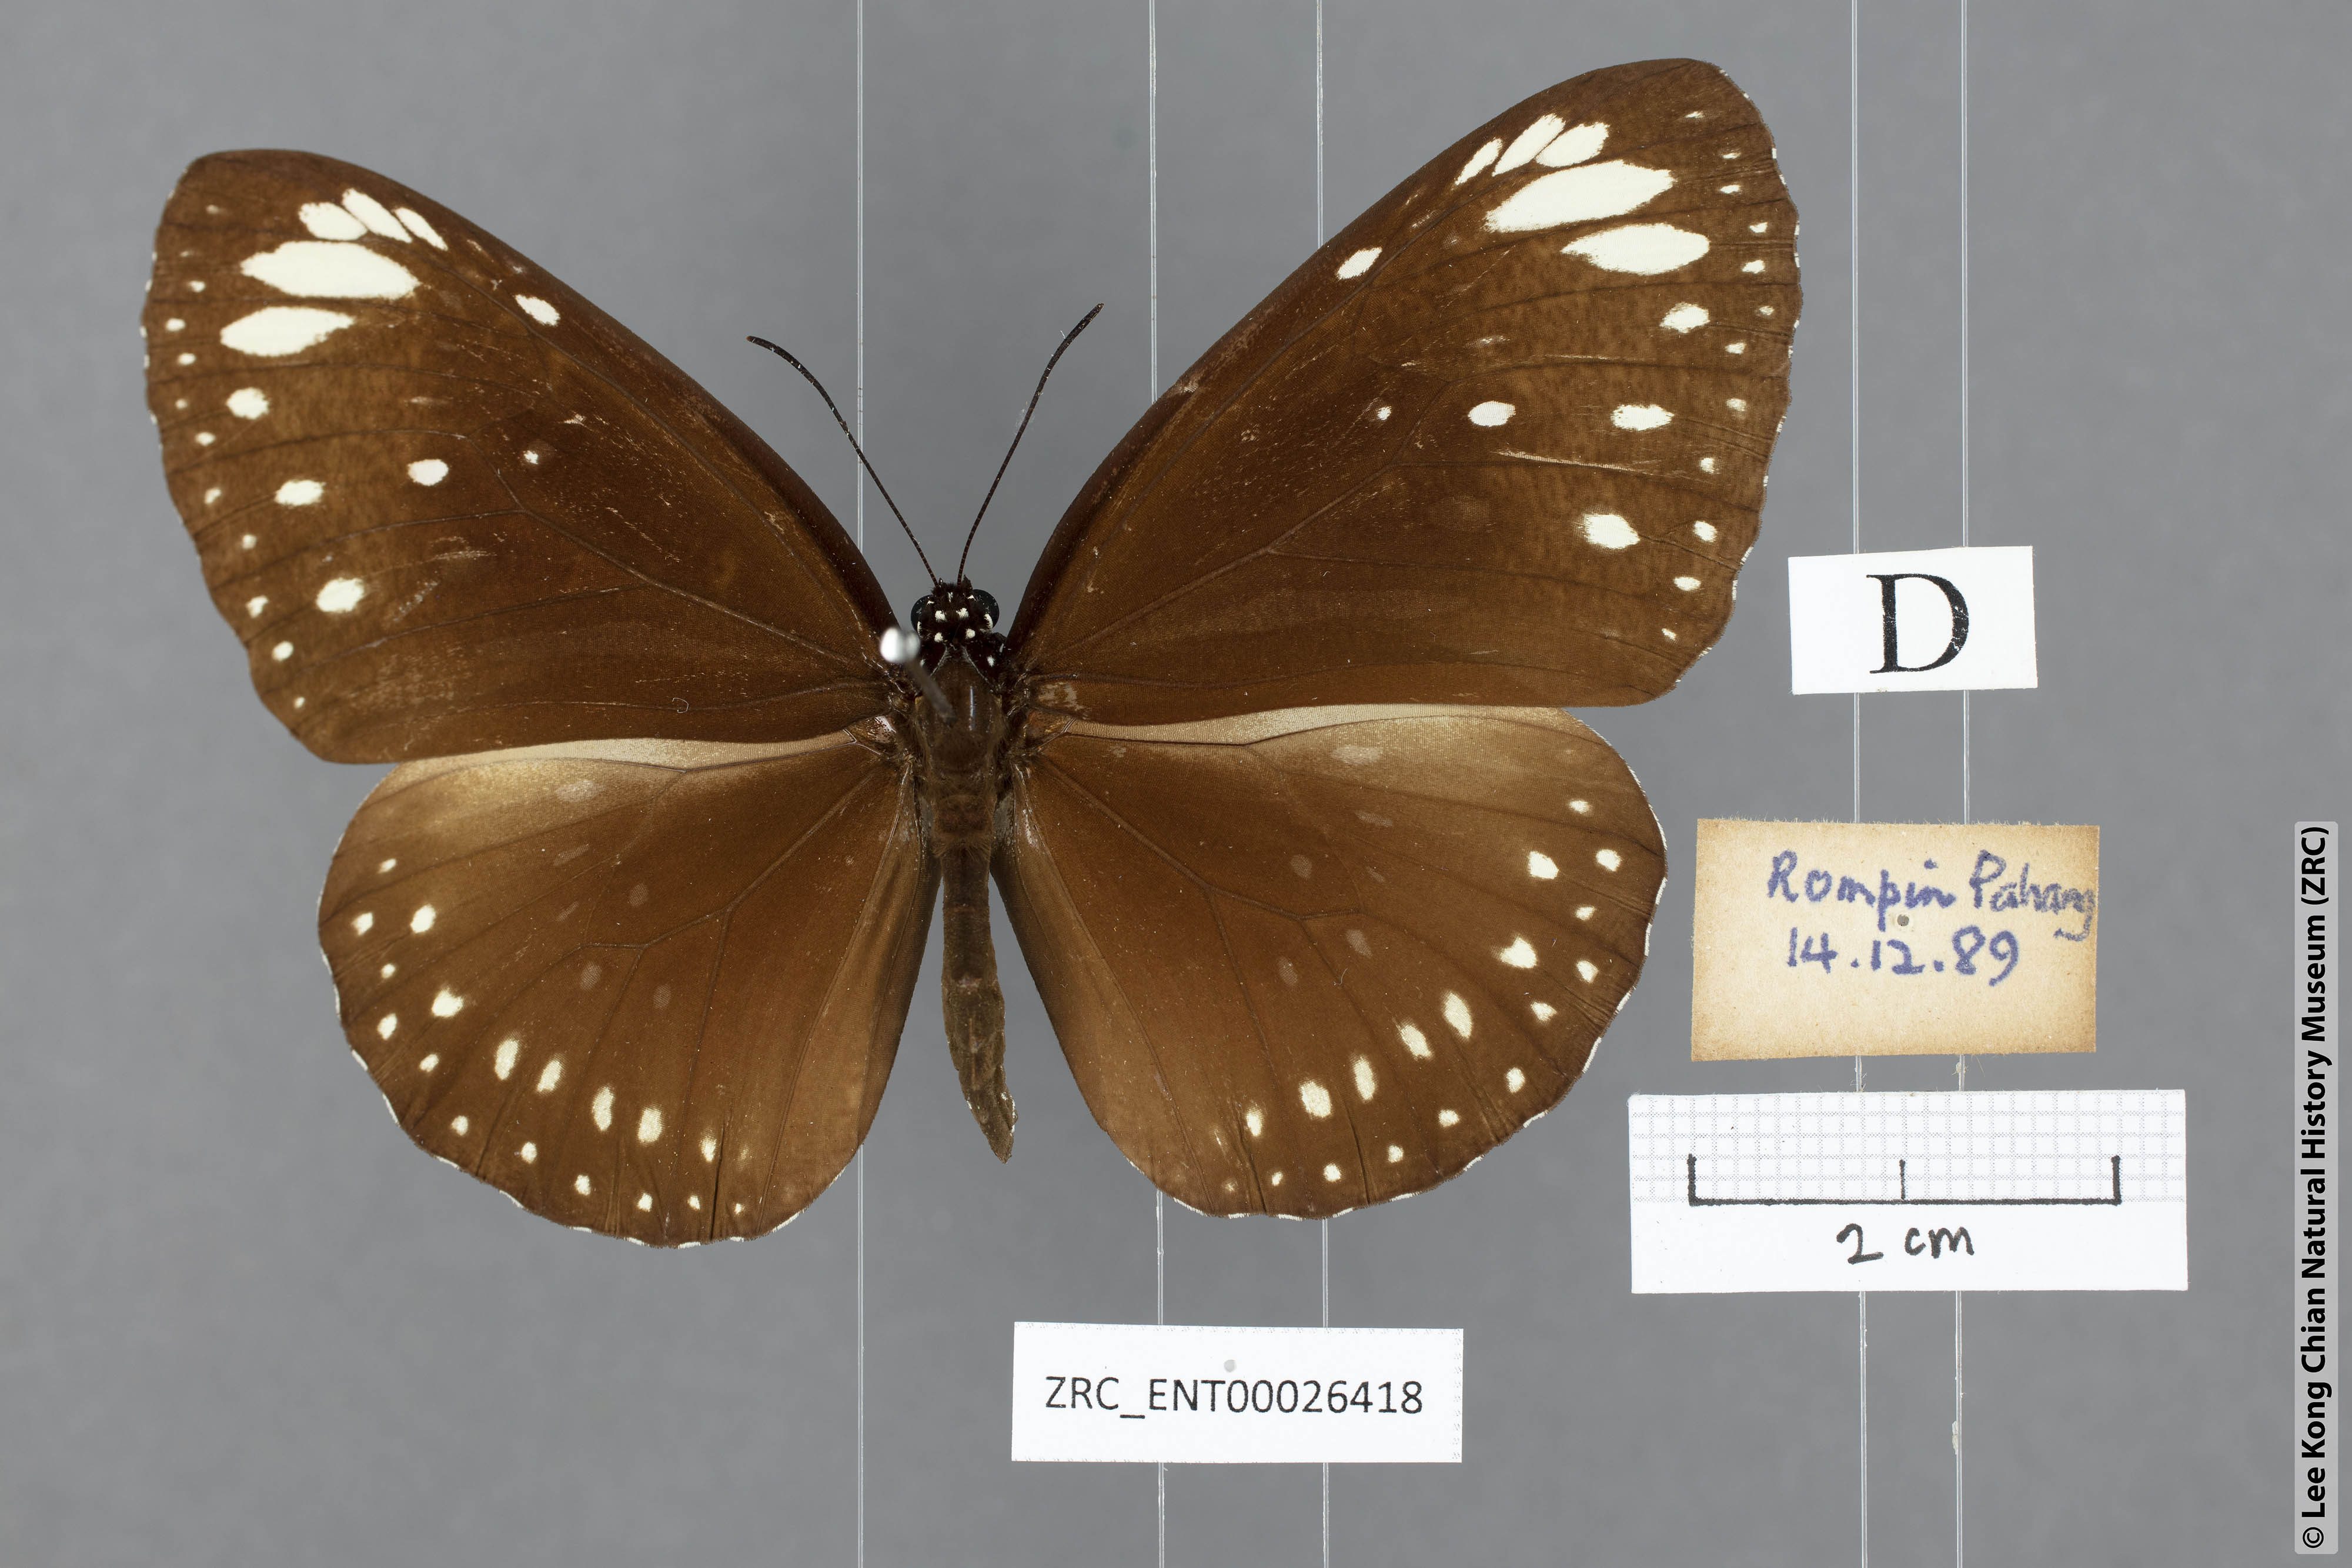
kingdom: Animalia
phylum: Arthropoda
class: Insecta
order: Lepidoptera
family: Nymphalidae
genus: Euploea
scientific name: Euploea core
